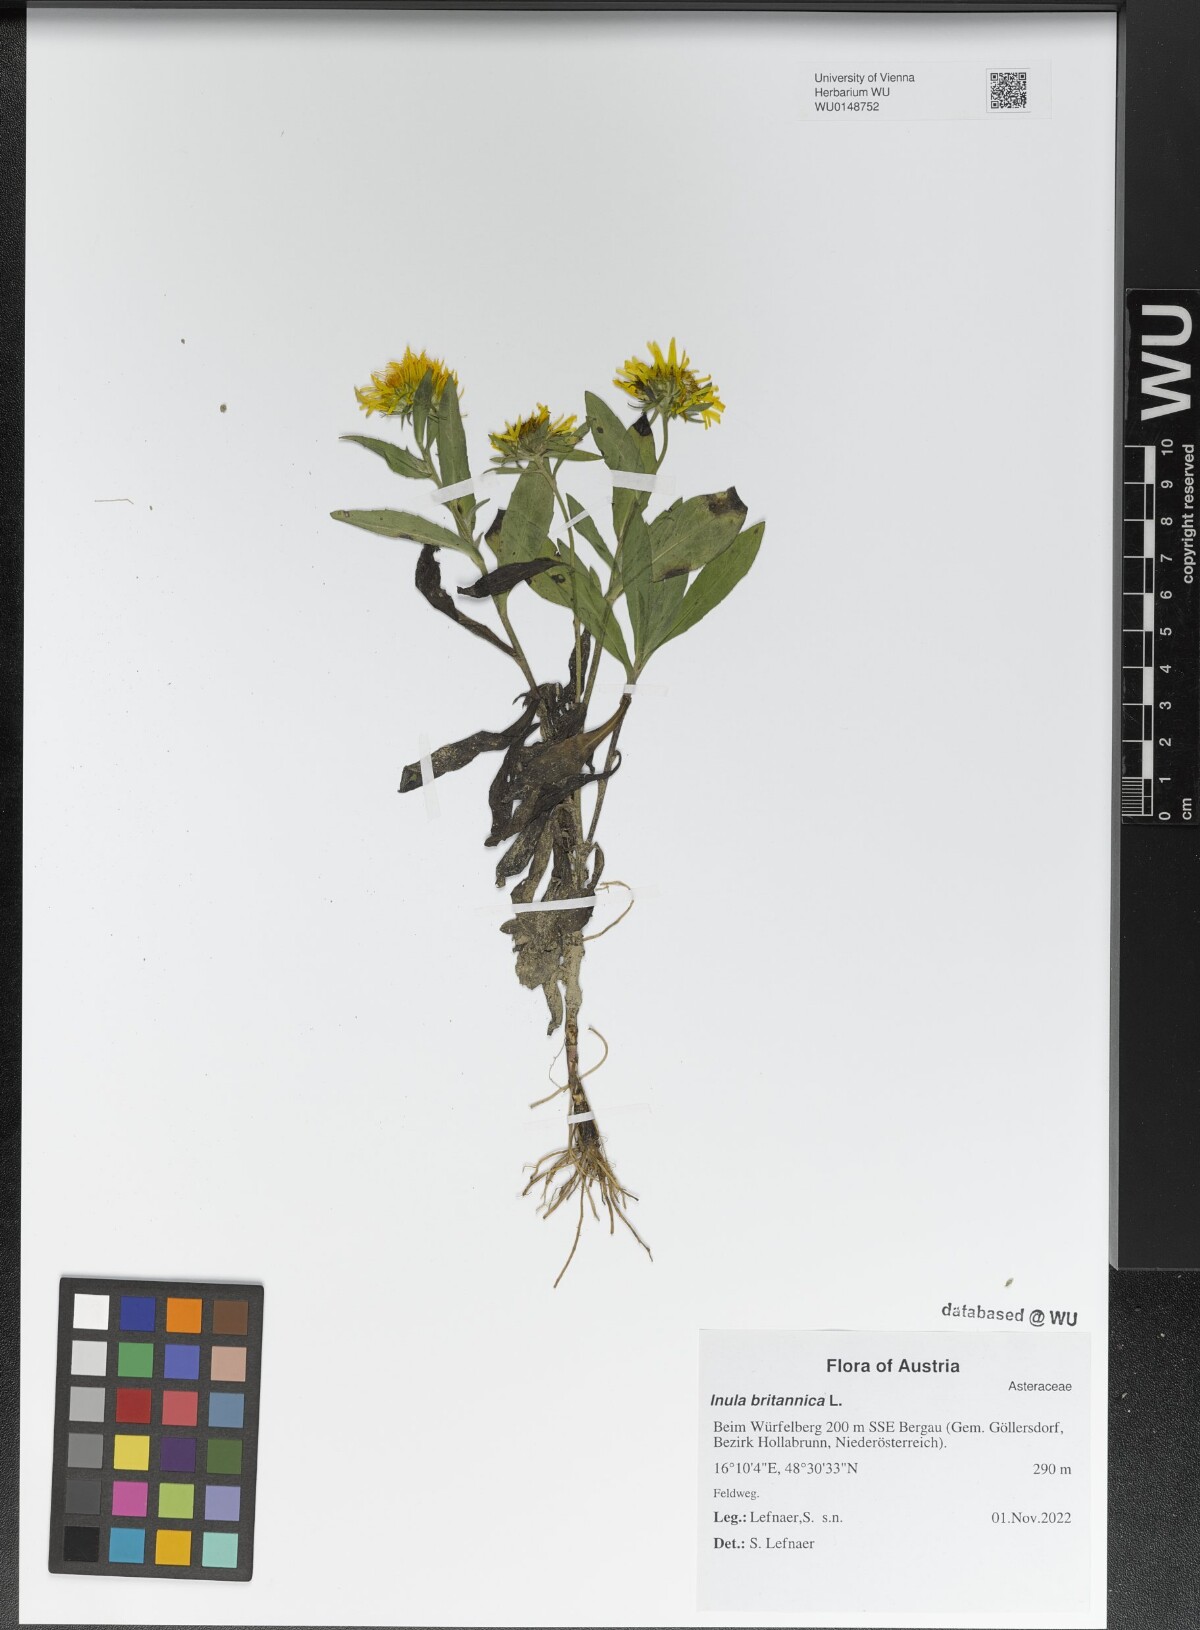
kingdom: Plantae
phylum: Tracheophyta
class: Magnoliopsida
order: Asterales
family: Asteraceae
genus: Pentanema
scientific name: Pentanema britannicum
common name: British elecampane
